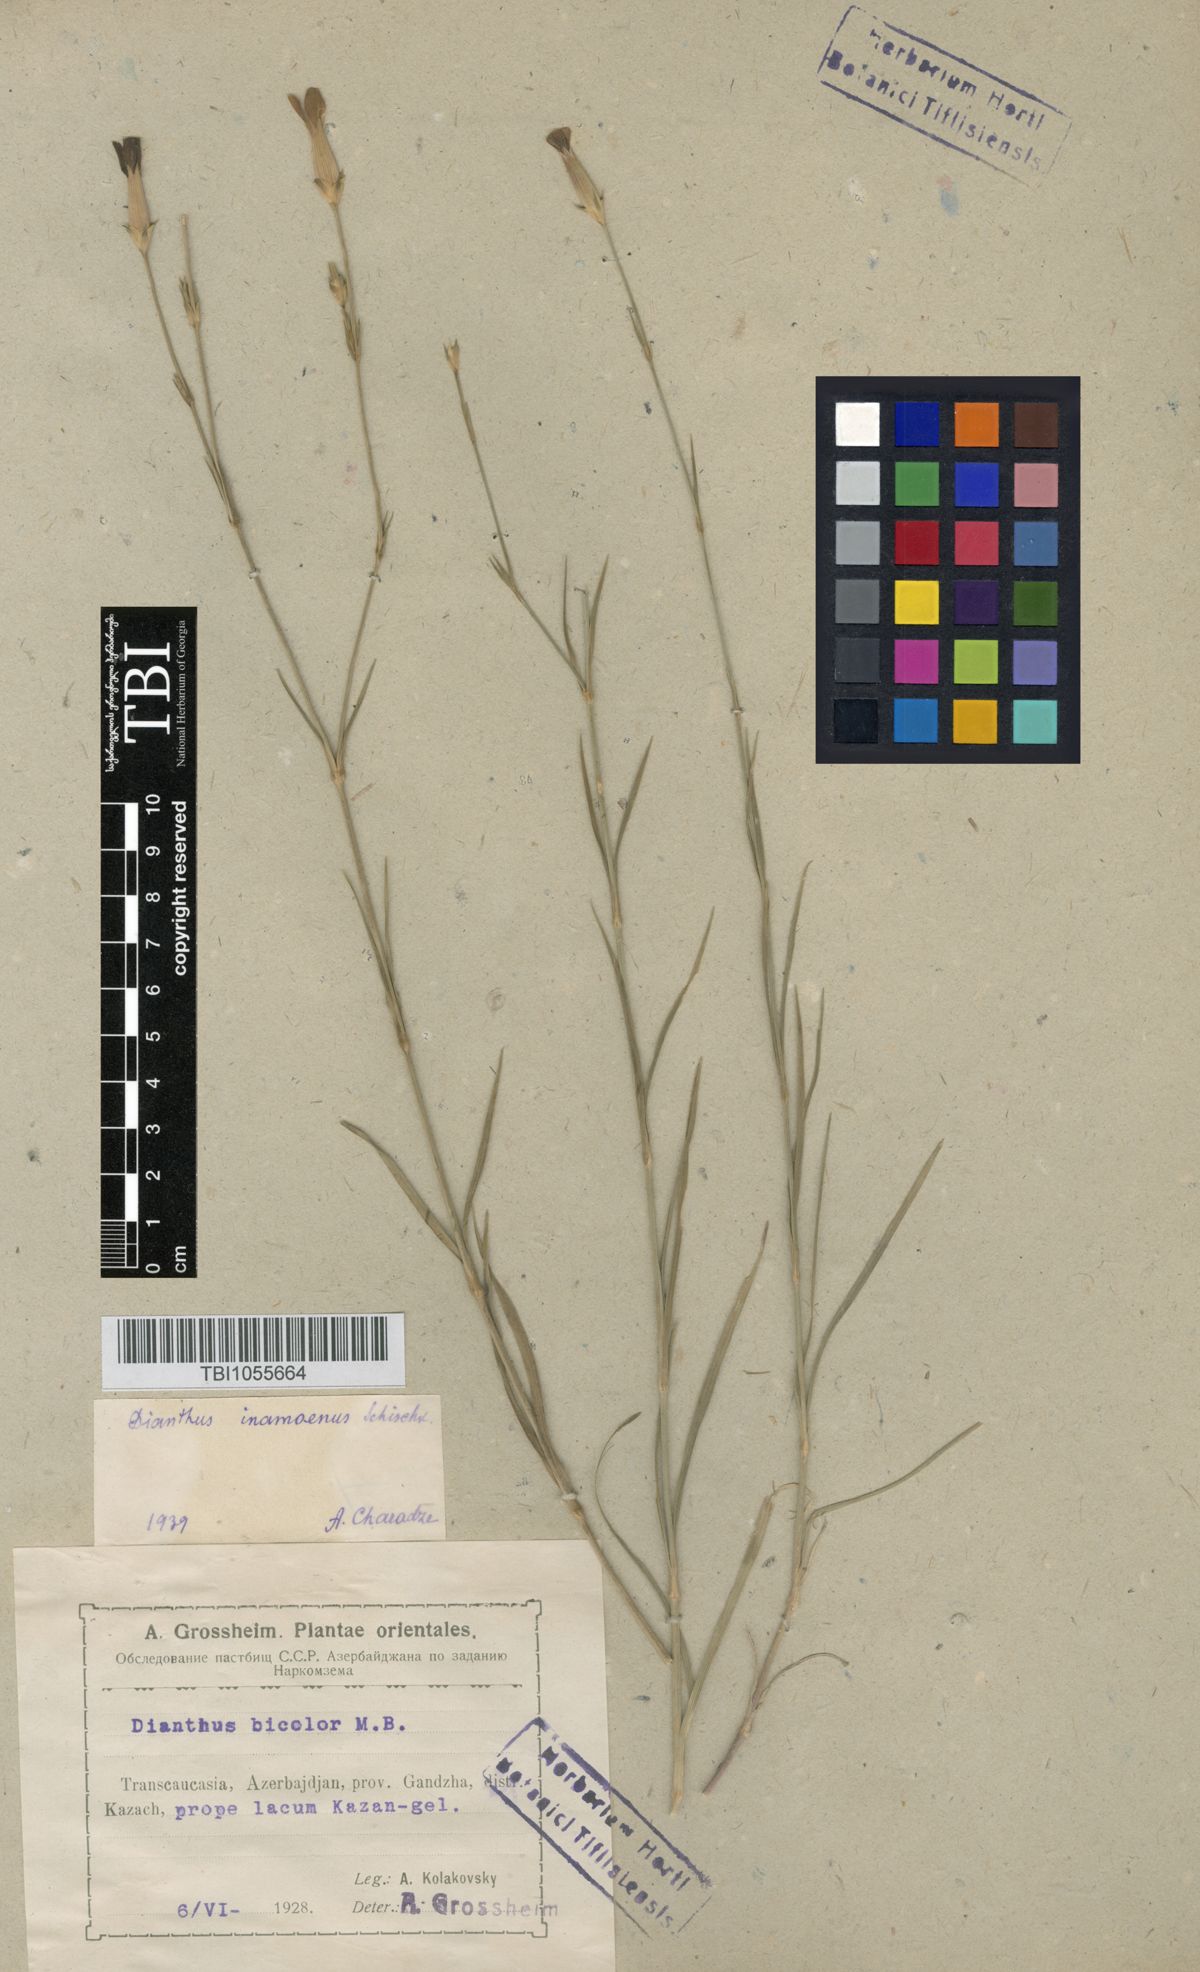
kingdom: Plantae
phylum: Tracheophyta
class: Magnoliopsida
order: Caryophyllales
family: Caryophyllaceae
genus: Dianthus
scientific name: Dianthus inamoenus
